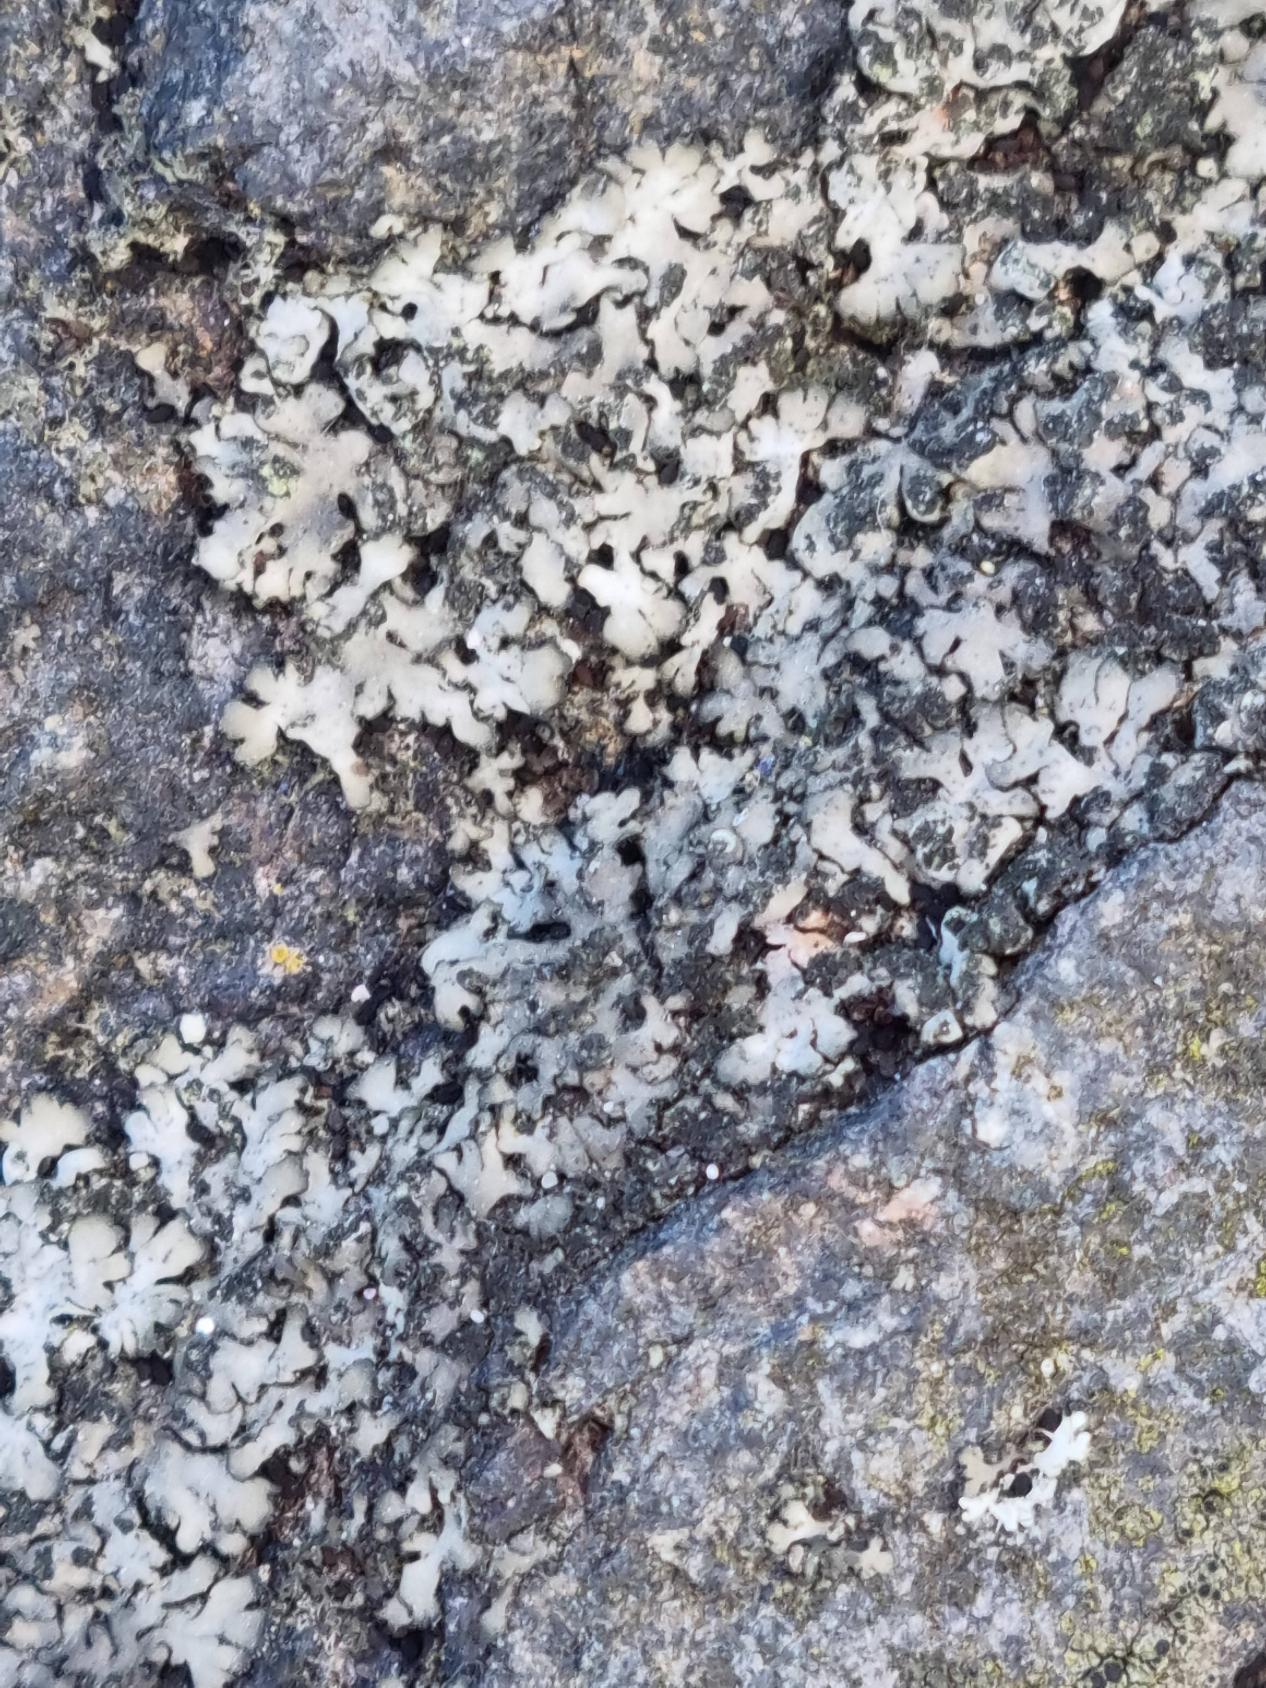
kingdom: Fungi
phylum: Ascomycota
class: Lecanoromycetes
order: Caliciales
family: Physciaceae
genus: Phaeophyscia
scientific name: Phaeophyscia orbicularis
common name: Grågrøn rosetlav
